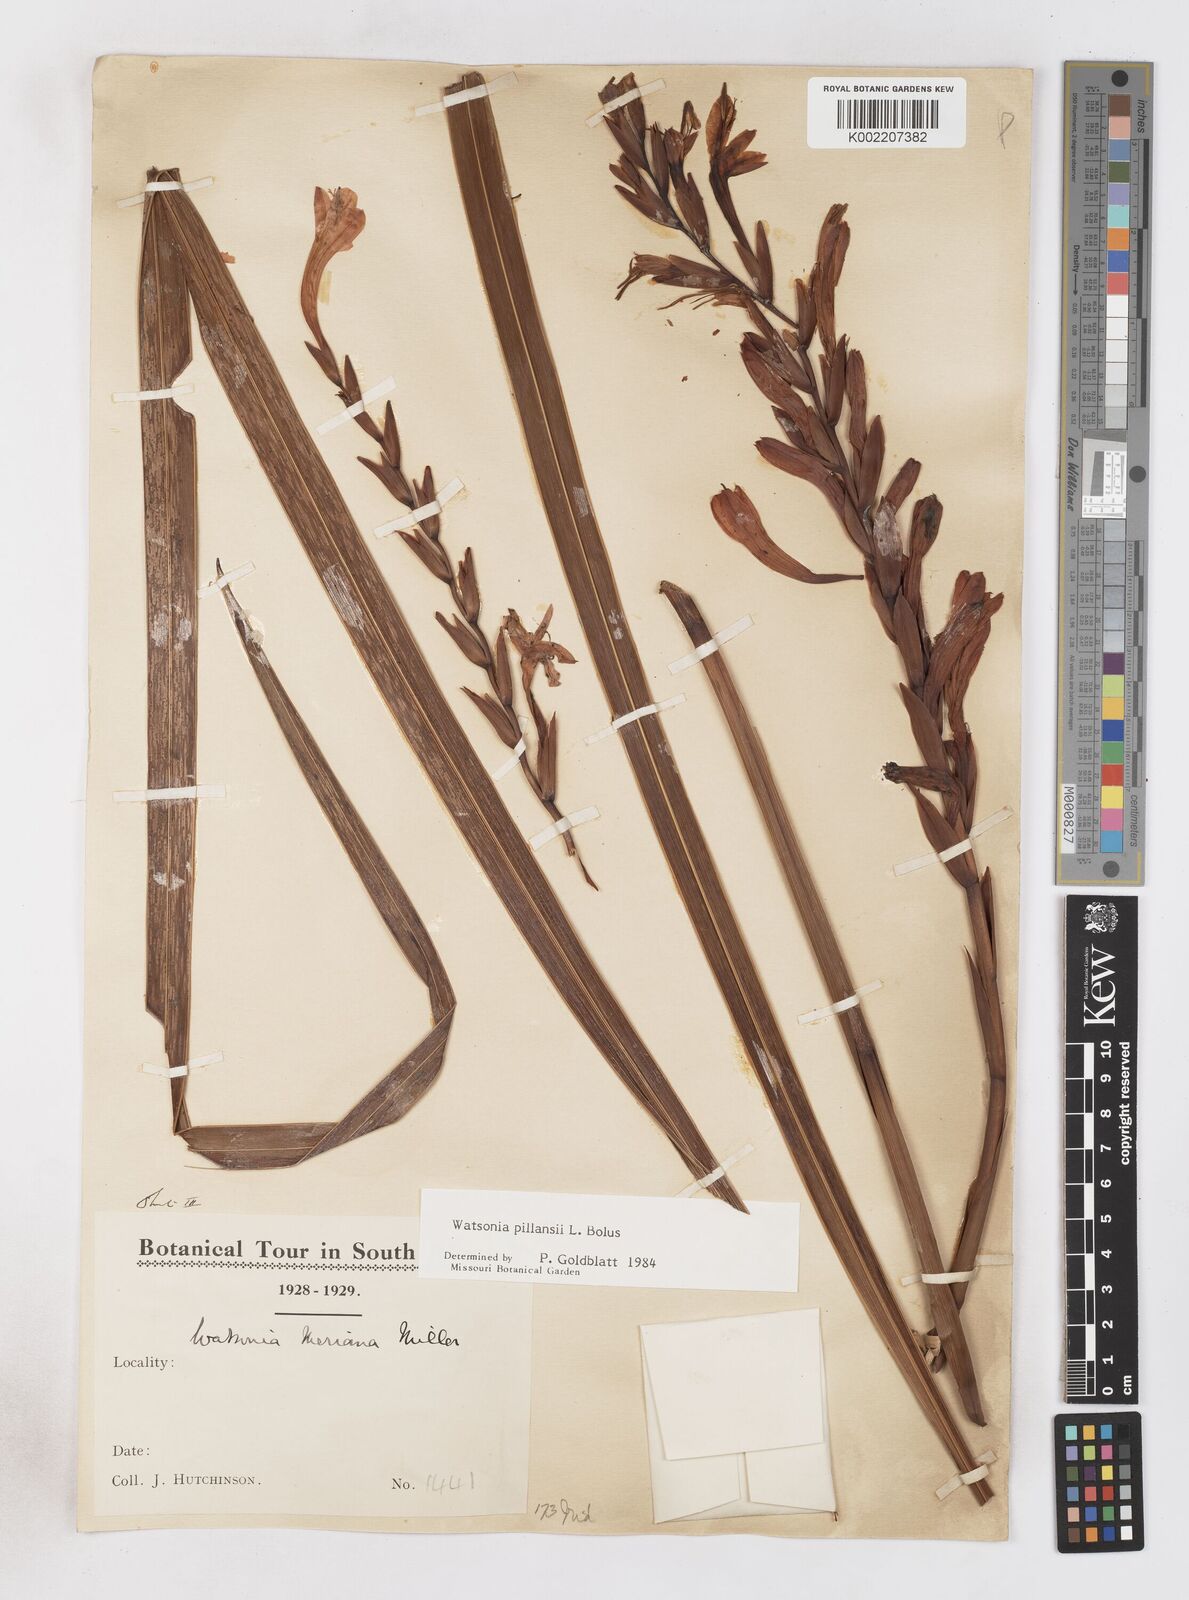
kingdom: Plantae
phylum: Tracheophyta
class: Liliopsida
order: Asparagales
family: Iridaceae
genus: Watsonia
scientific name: Watsonia pillansii
